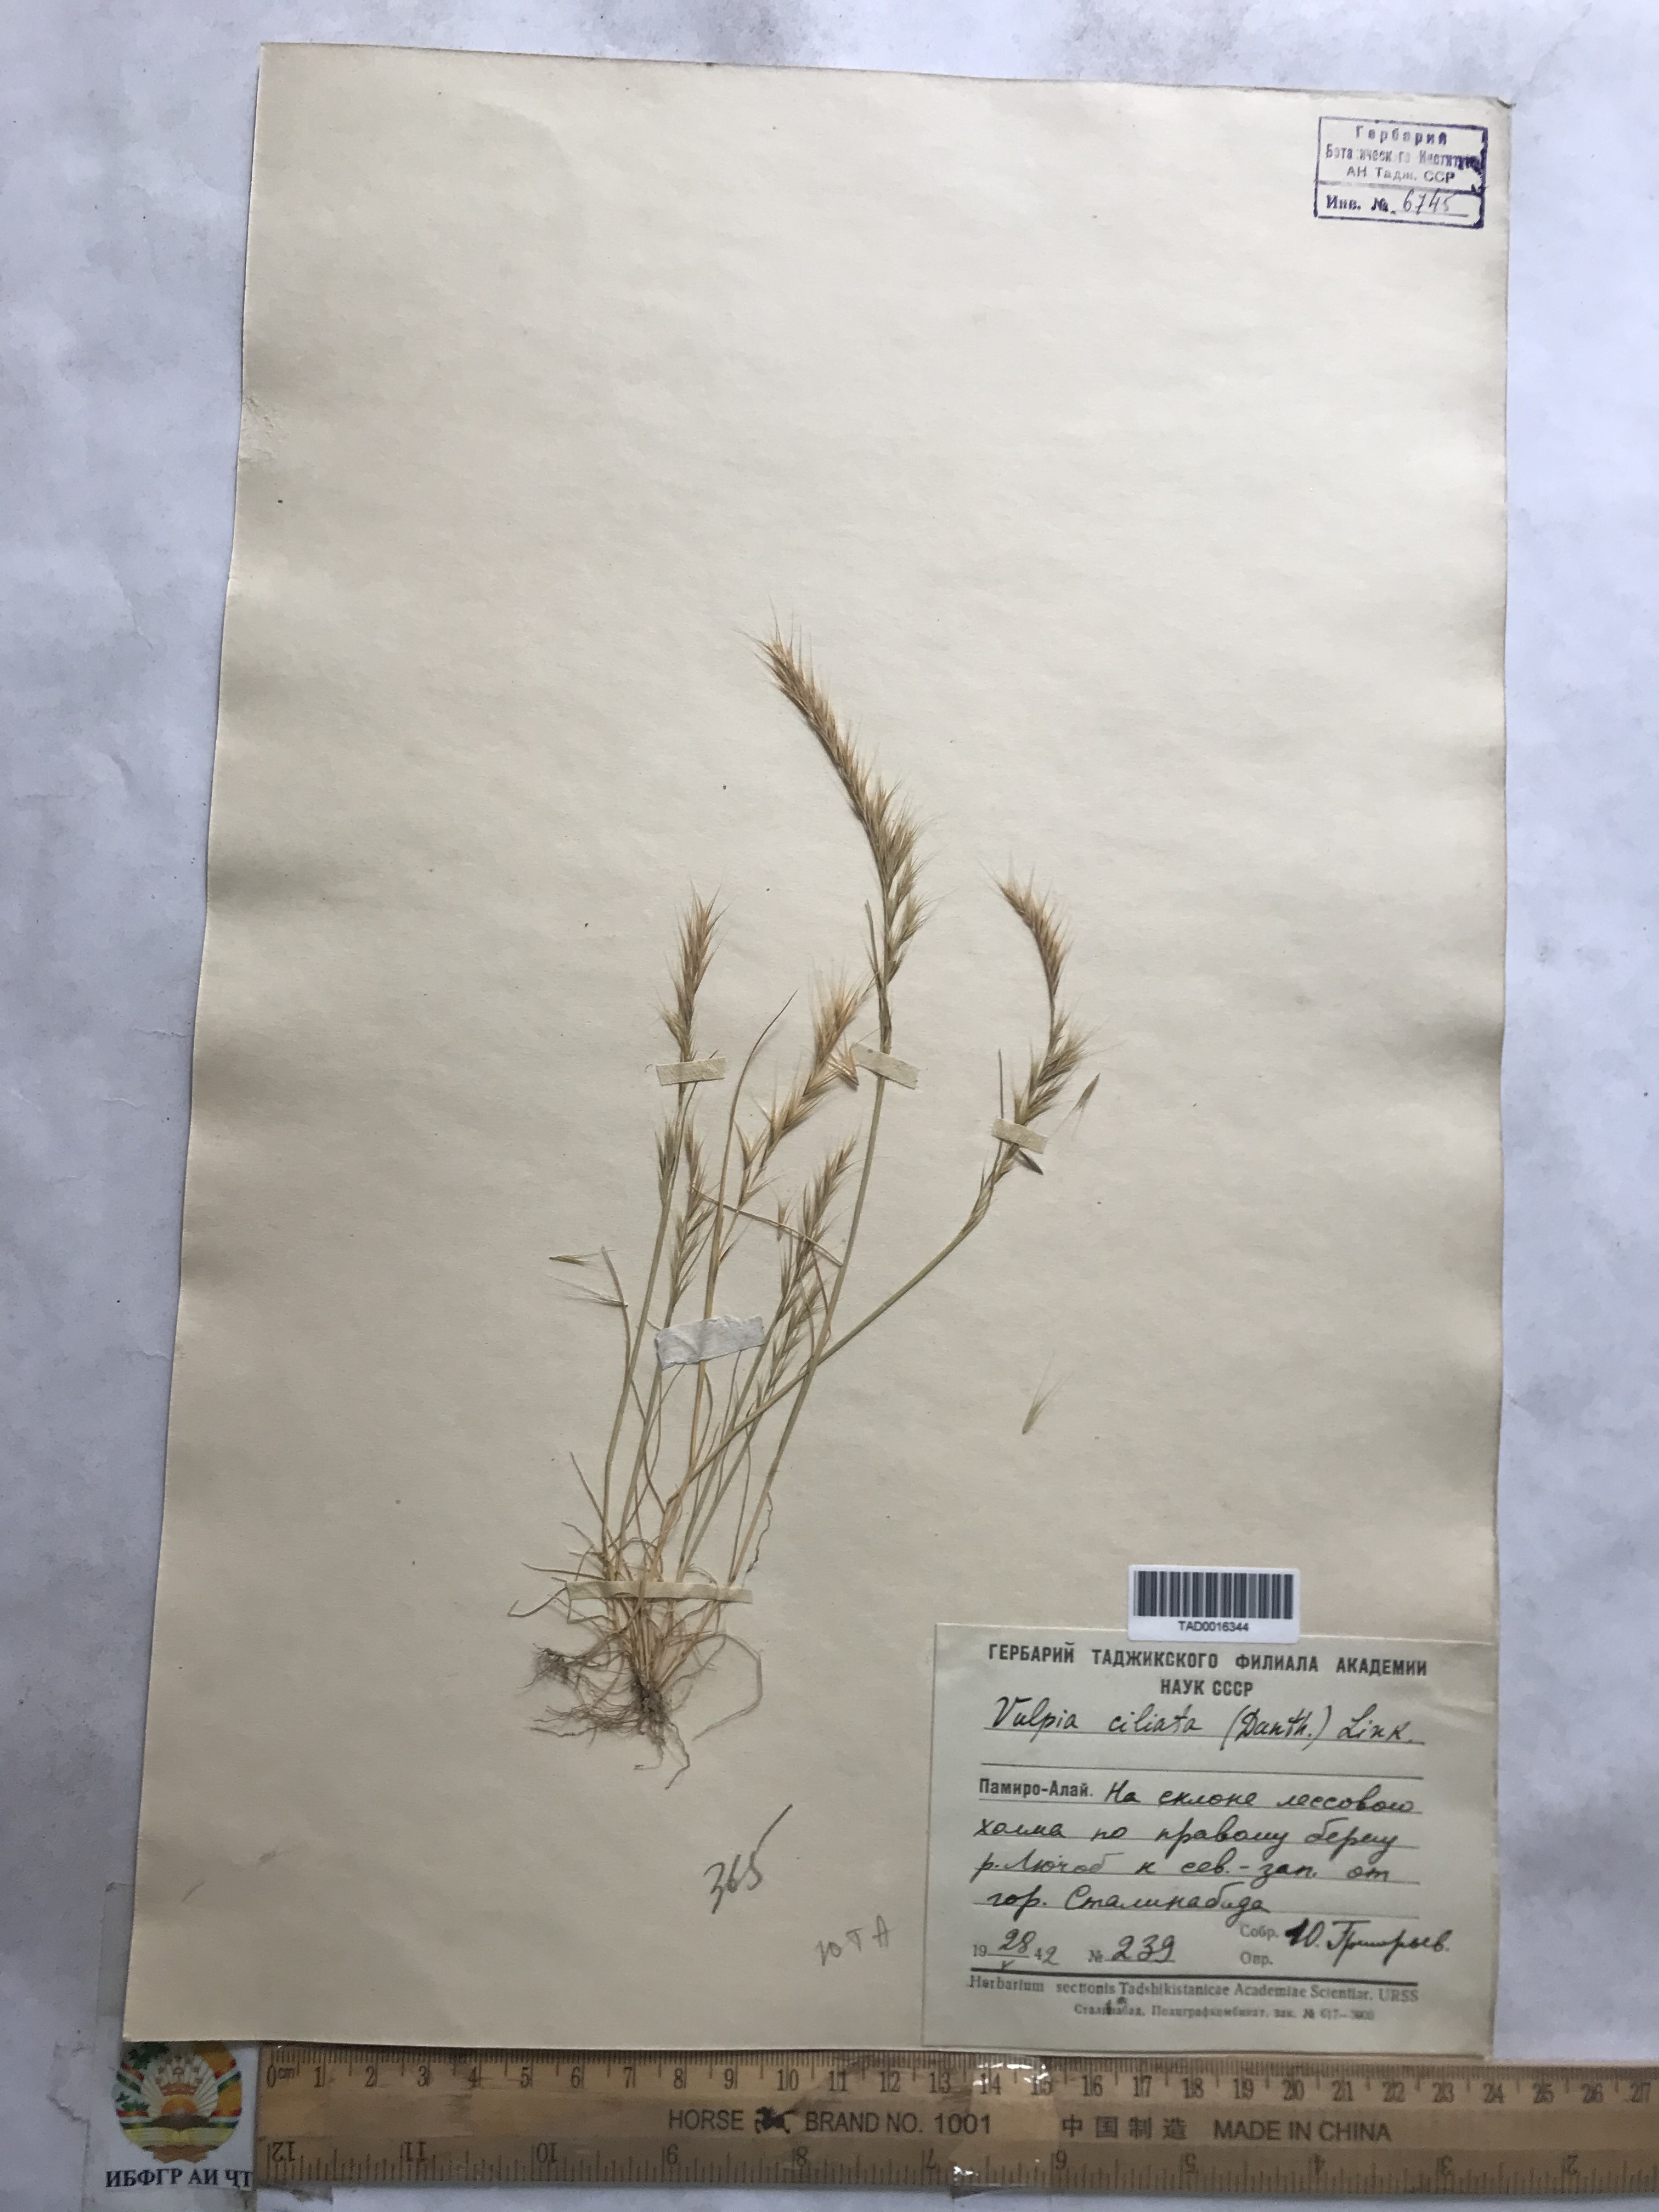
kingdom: Plantae
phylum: Tracheophyta
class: Liliopsida
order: Poales
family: Poaceae
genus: Festuca
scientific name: Festuca ambigua
